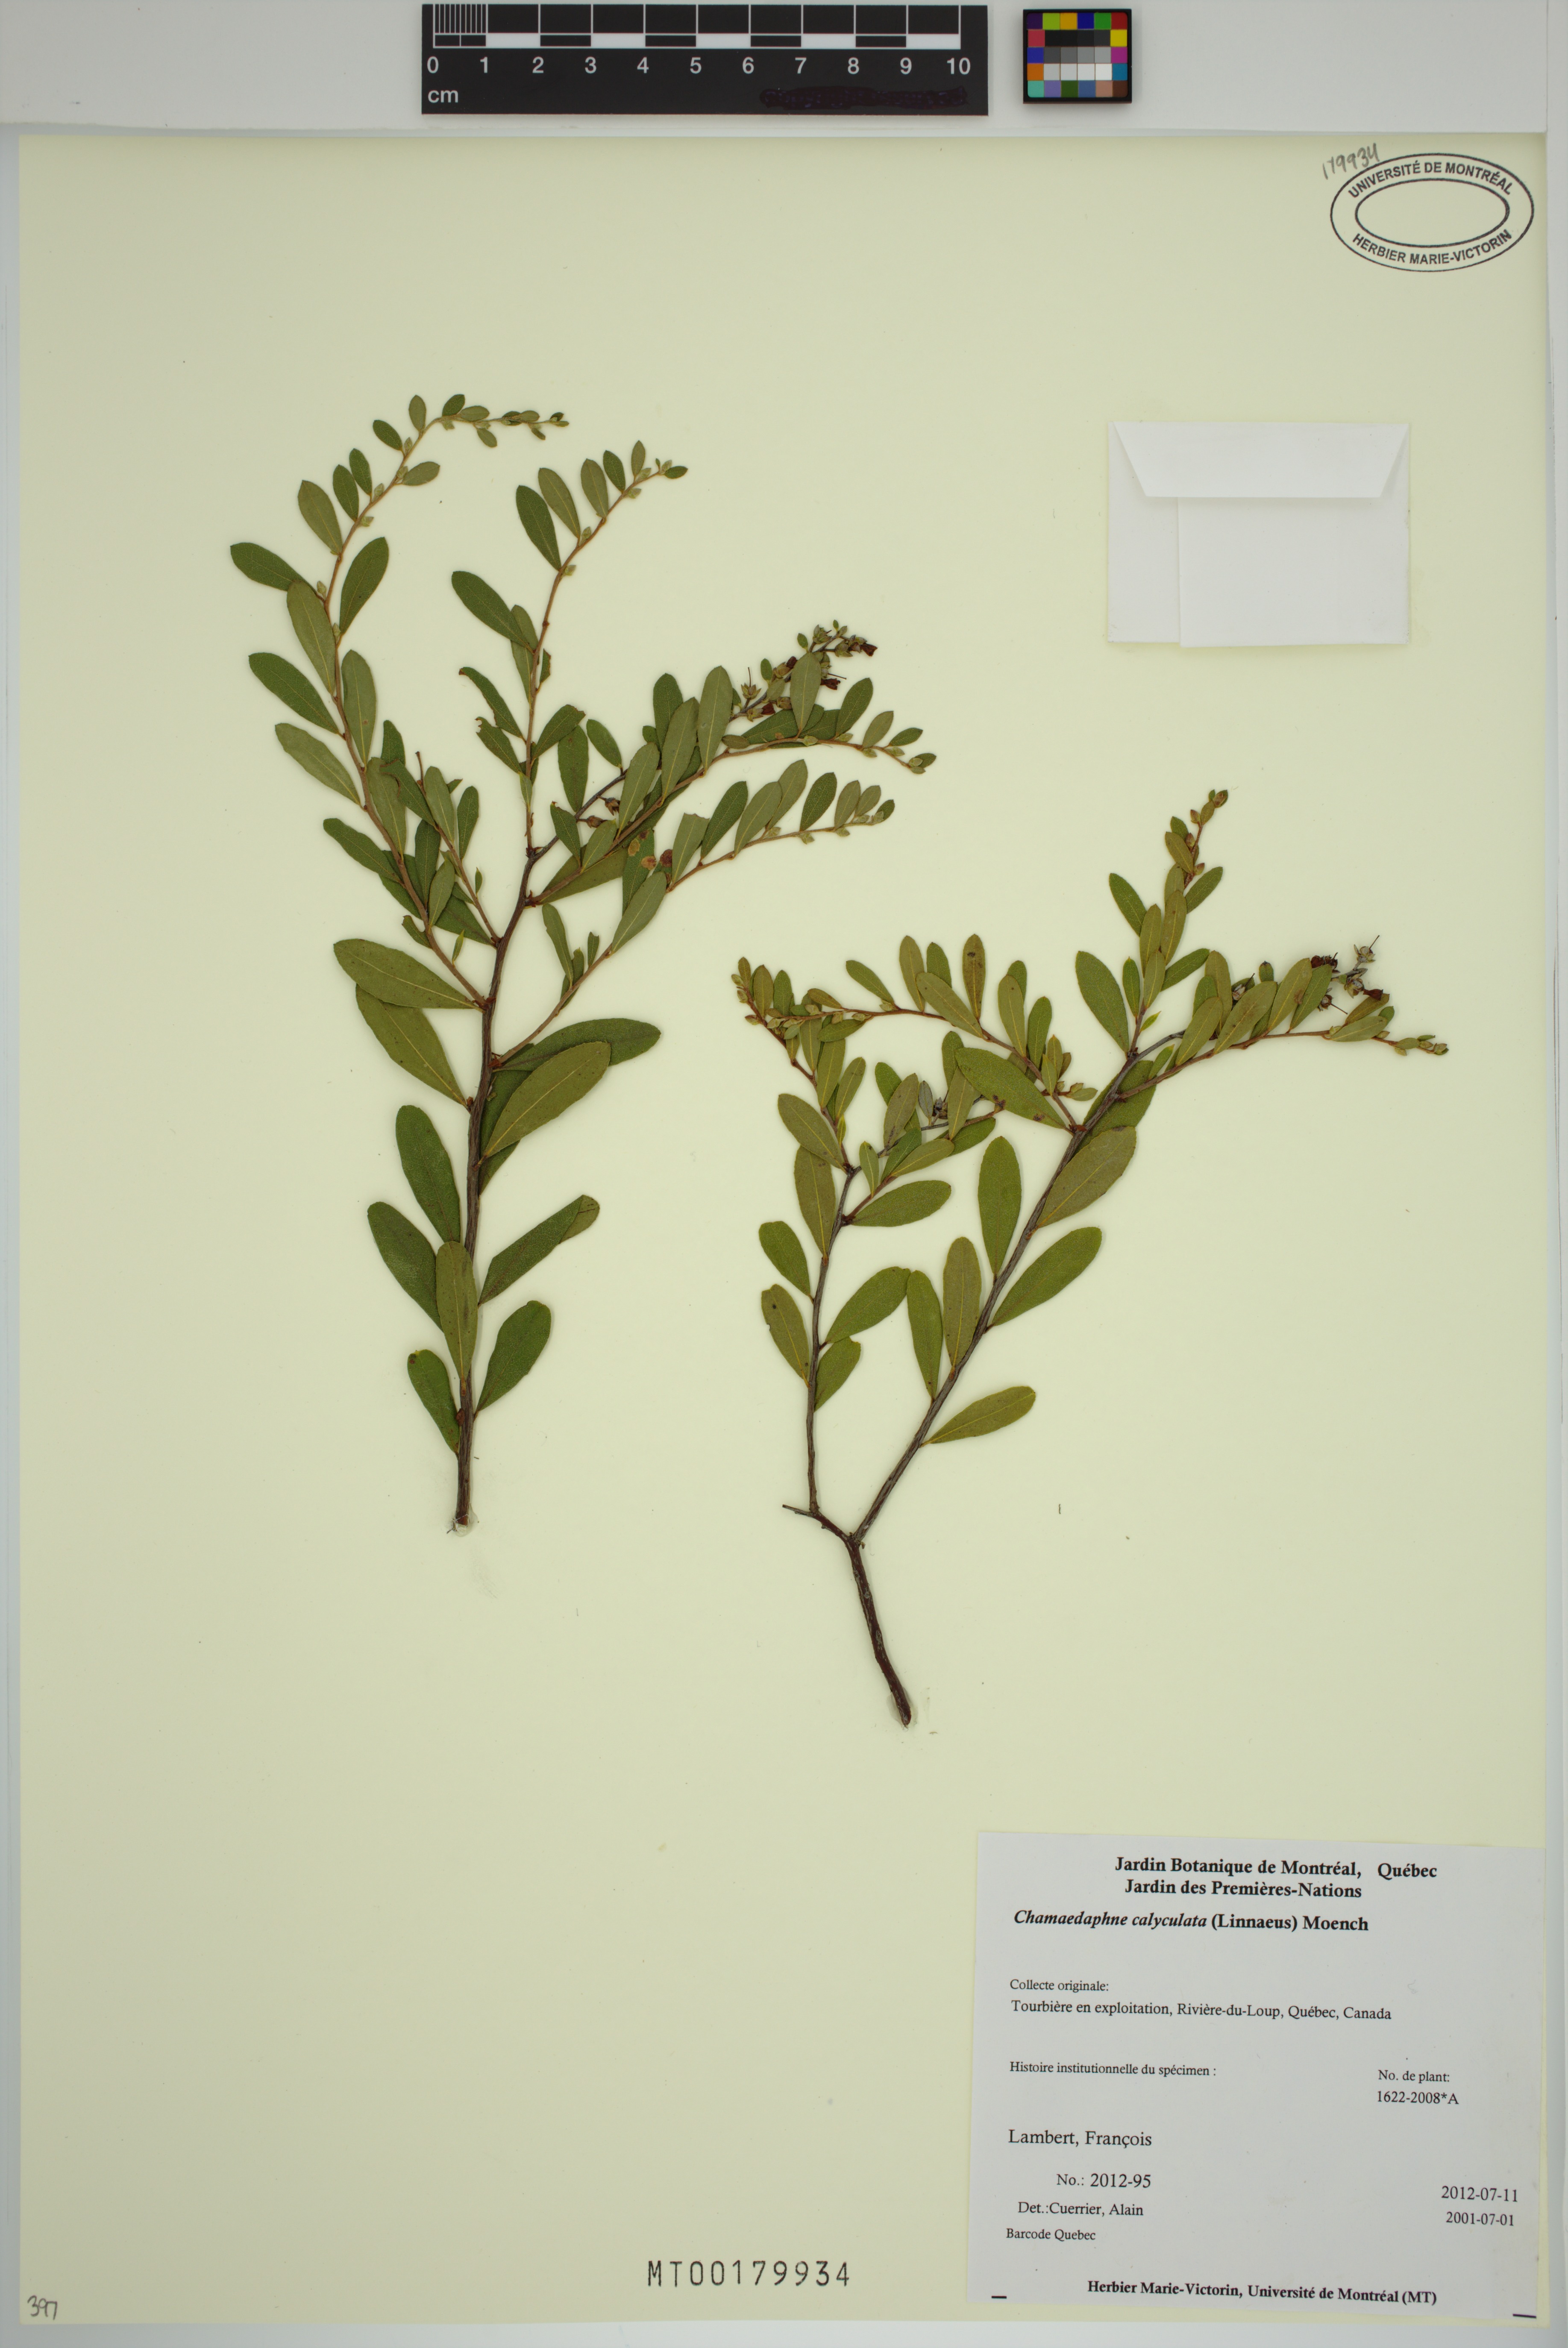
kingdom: Plantae
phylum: Tracheophyta
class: Magnoliopsida
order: Ericales
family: Ericaceae
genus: Chamaedaphne
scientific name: Chamaedaphne calyculata
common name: Leatherleaf
